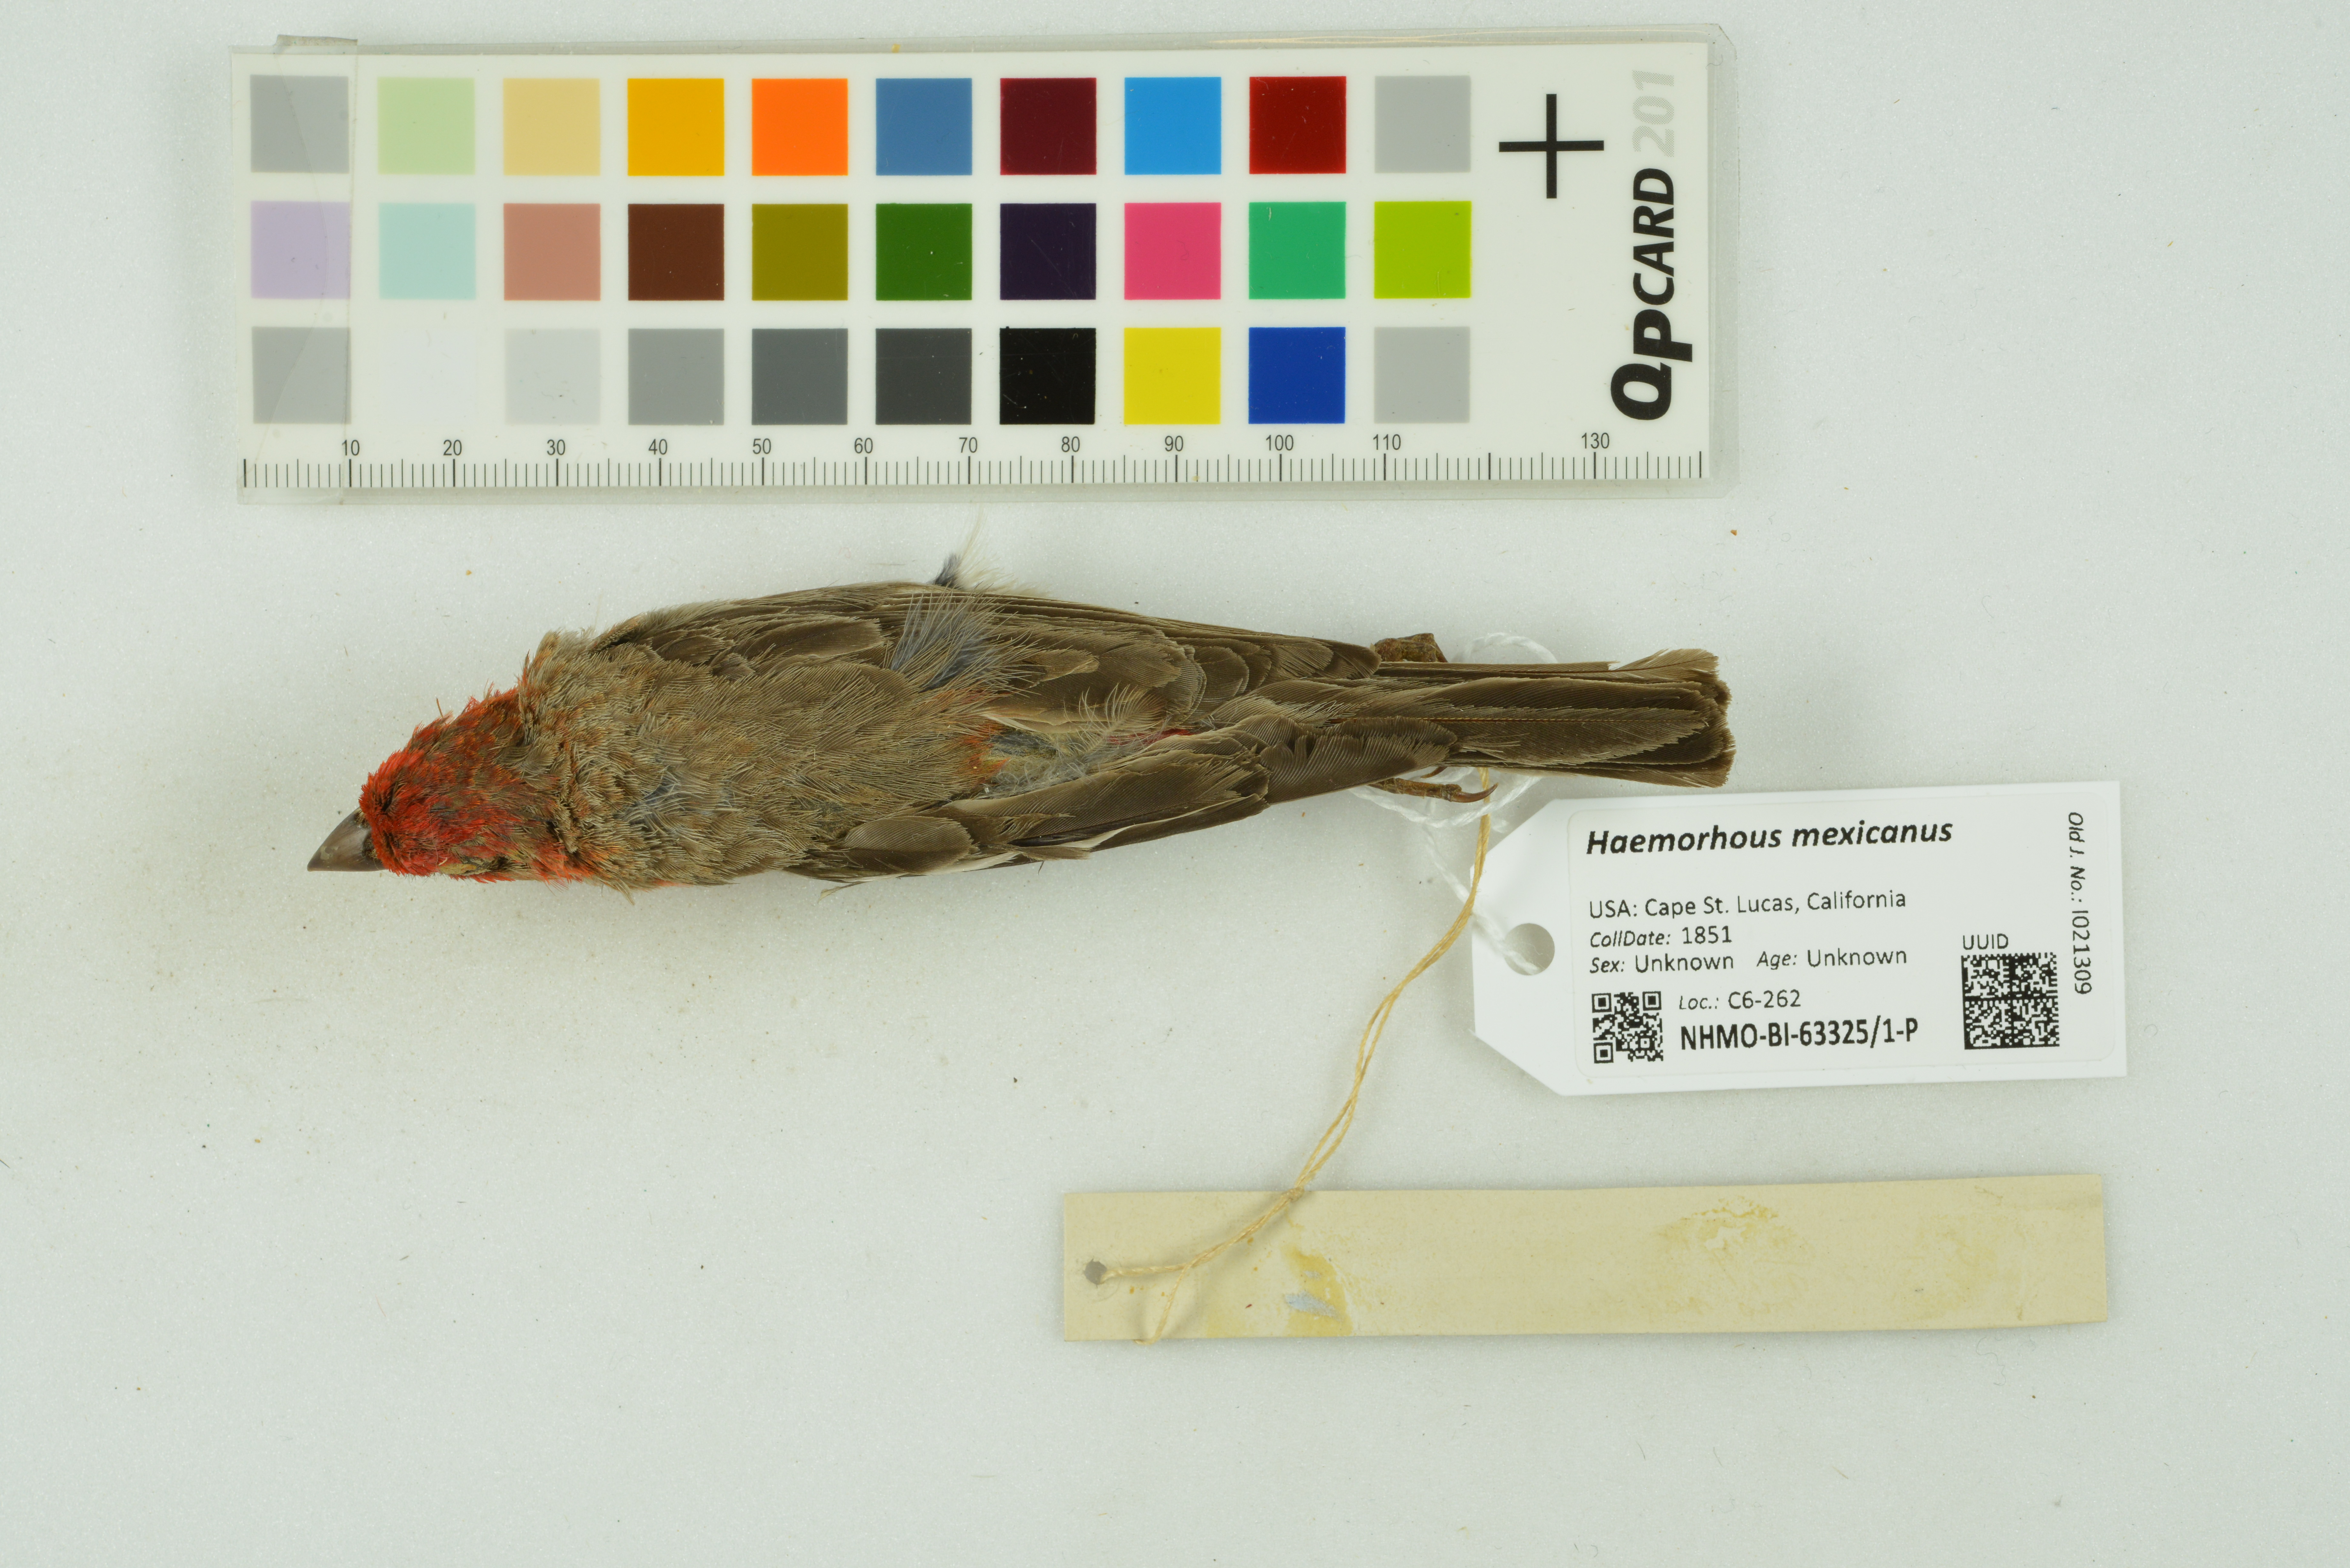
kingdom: Animalia
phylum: Chordata
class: Aves
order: Passeriformes
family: Fringillidae
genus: Haemorhous
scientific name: Haemorhous mexicanus
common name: House finch
